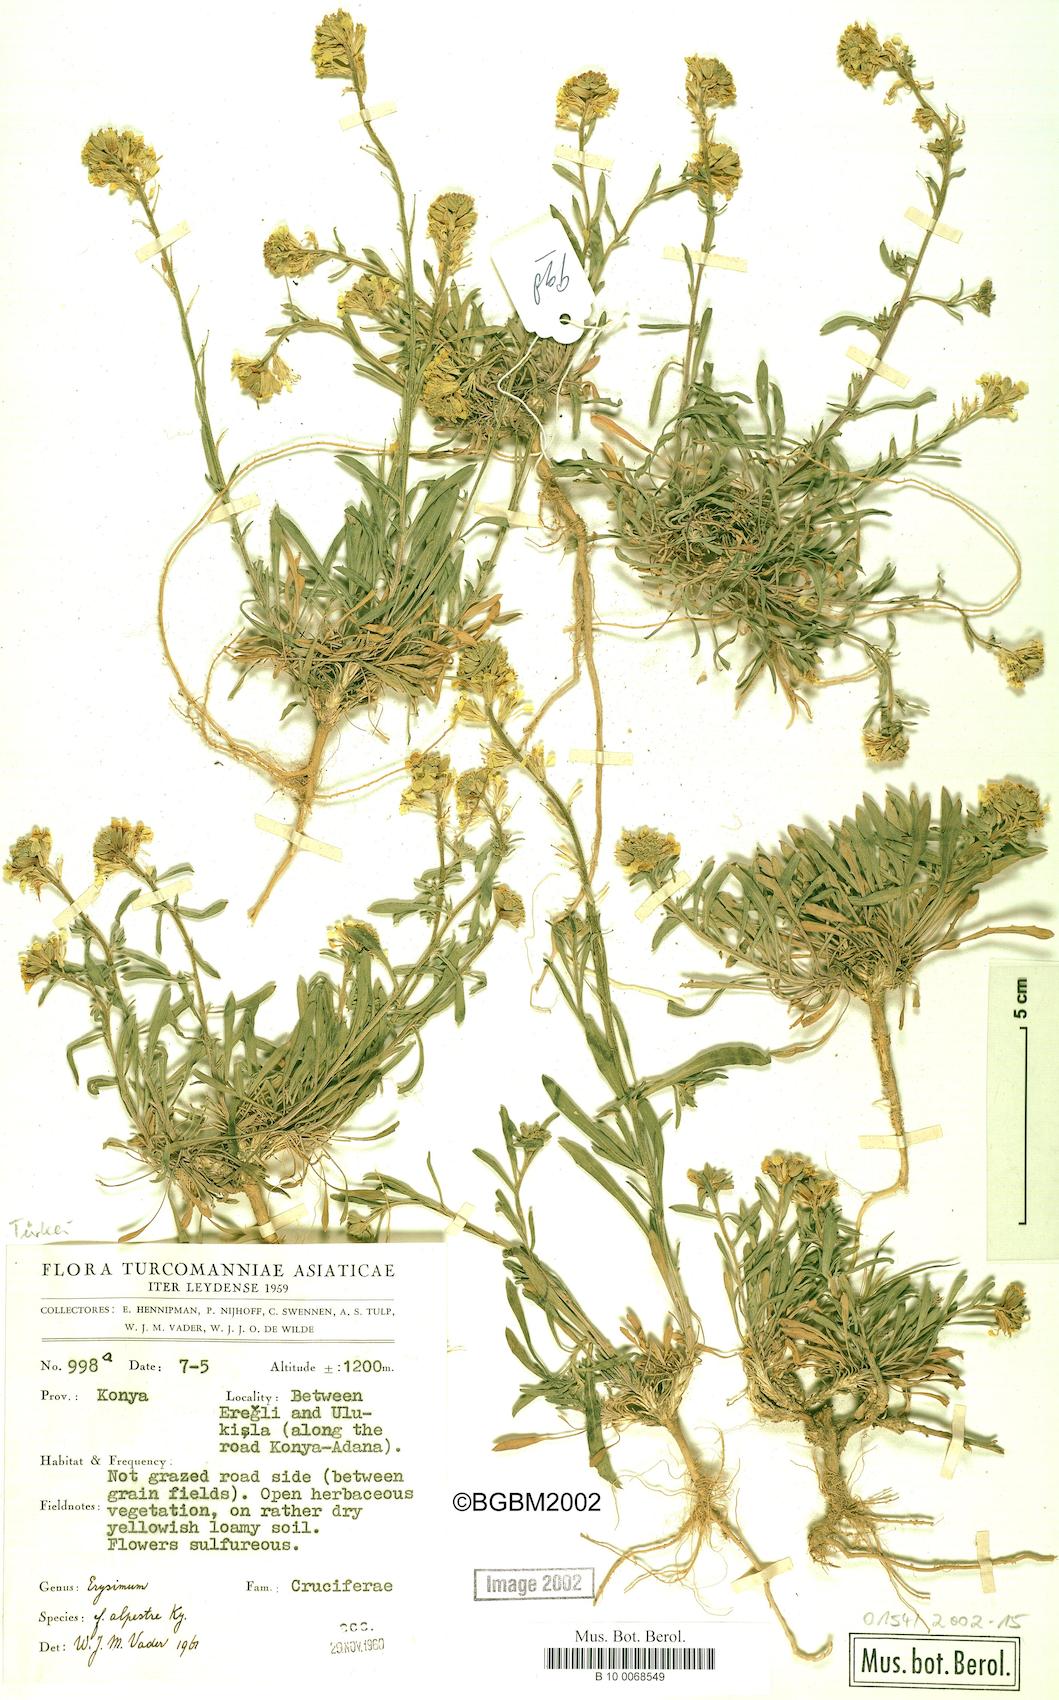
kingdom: Plantae
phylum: Tracheophyta
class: Magnoliopsida
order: Brassicales
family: Brassicaceae
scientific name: Brassicaceae
